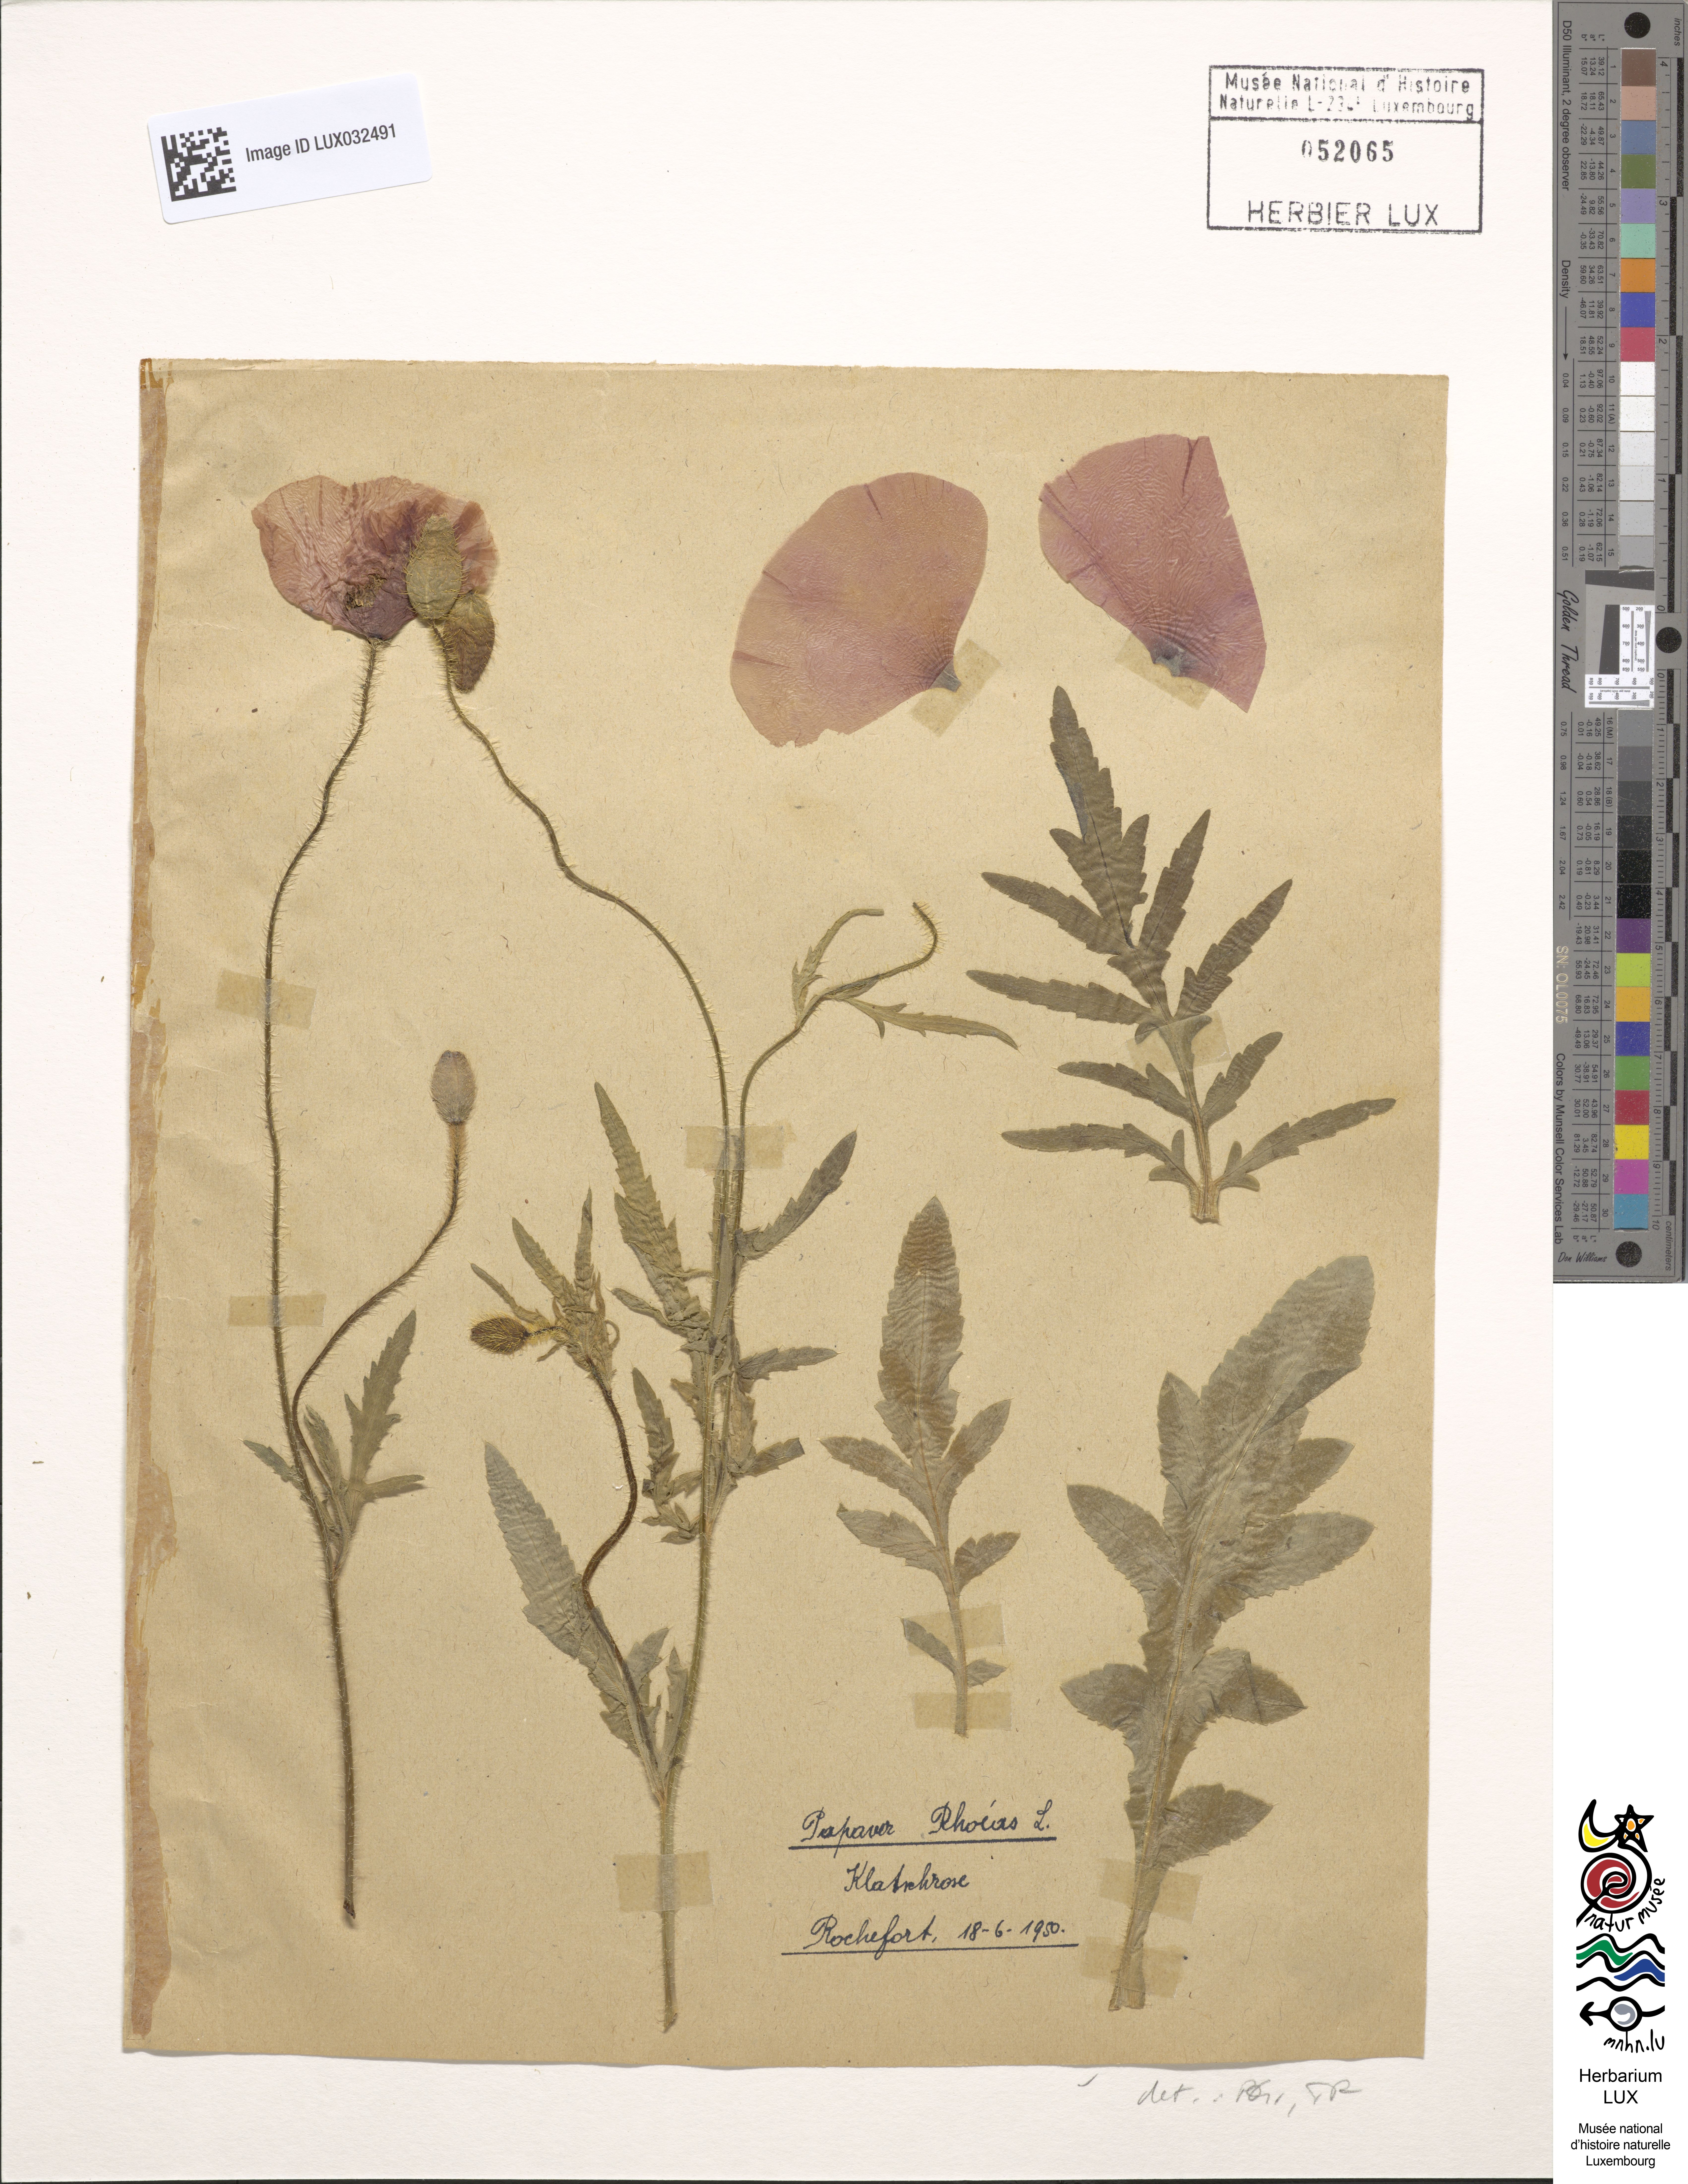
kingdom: Plantae
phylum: Tracheophyta
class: Magnoliopsida
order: Ranunculales
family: Papaveraceae
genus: Papaver
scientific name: Papaver rhoeas
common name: Corn poppy
